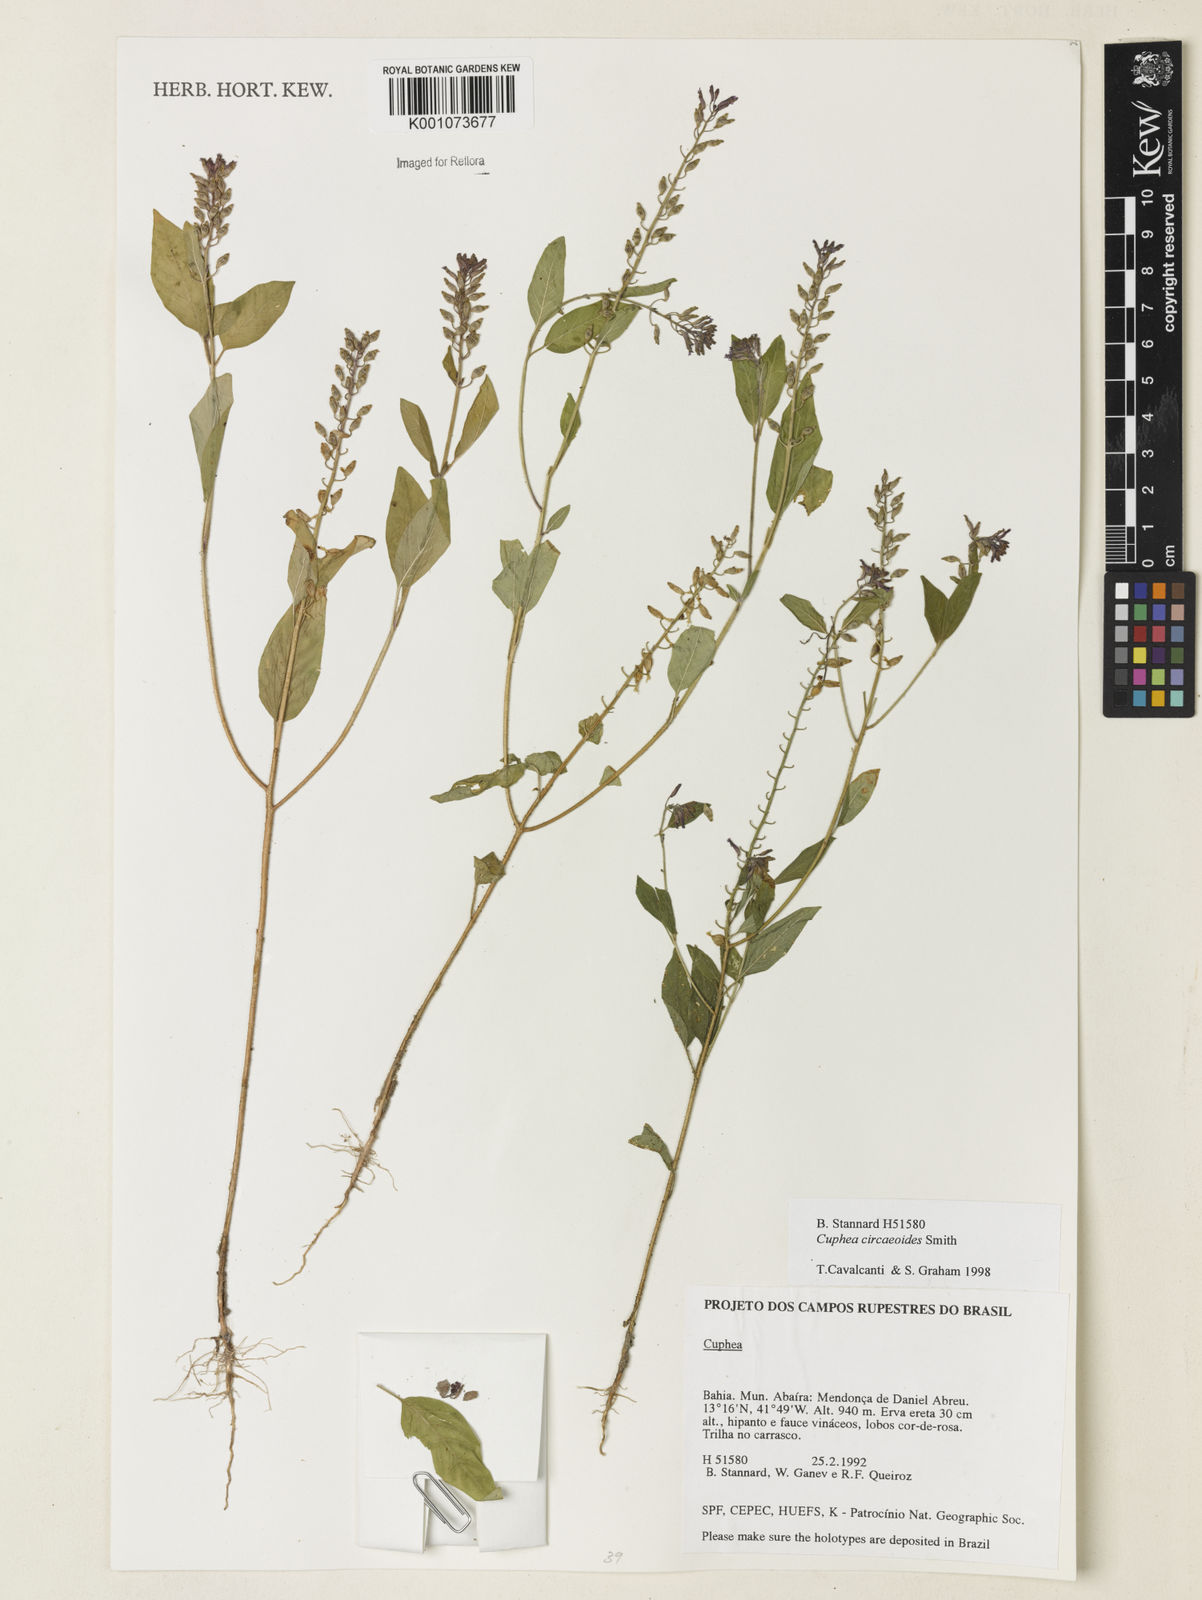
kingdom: Plantae
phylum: Tracheophyta
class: Magnoliopsida
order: Myrtales
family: Lythraceae
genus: Cuphea
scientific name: Cuphea circaeoides
